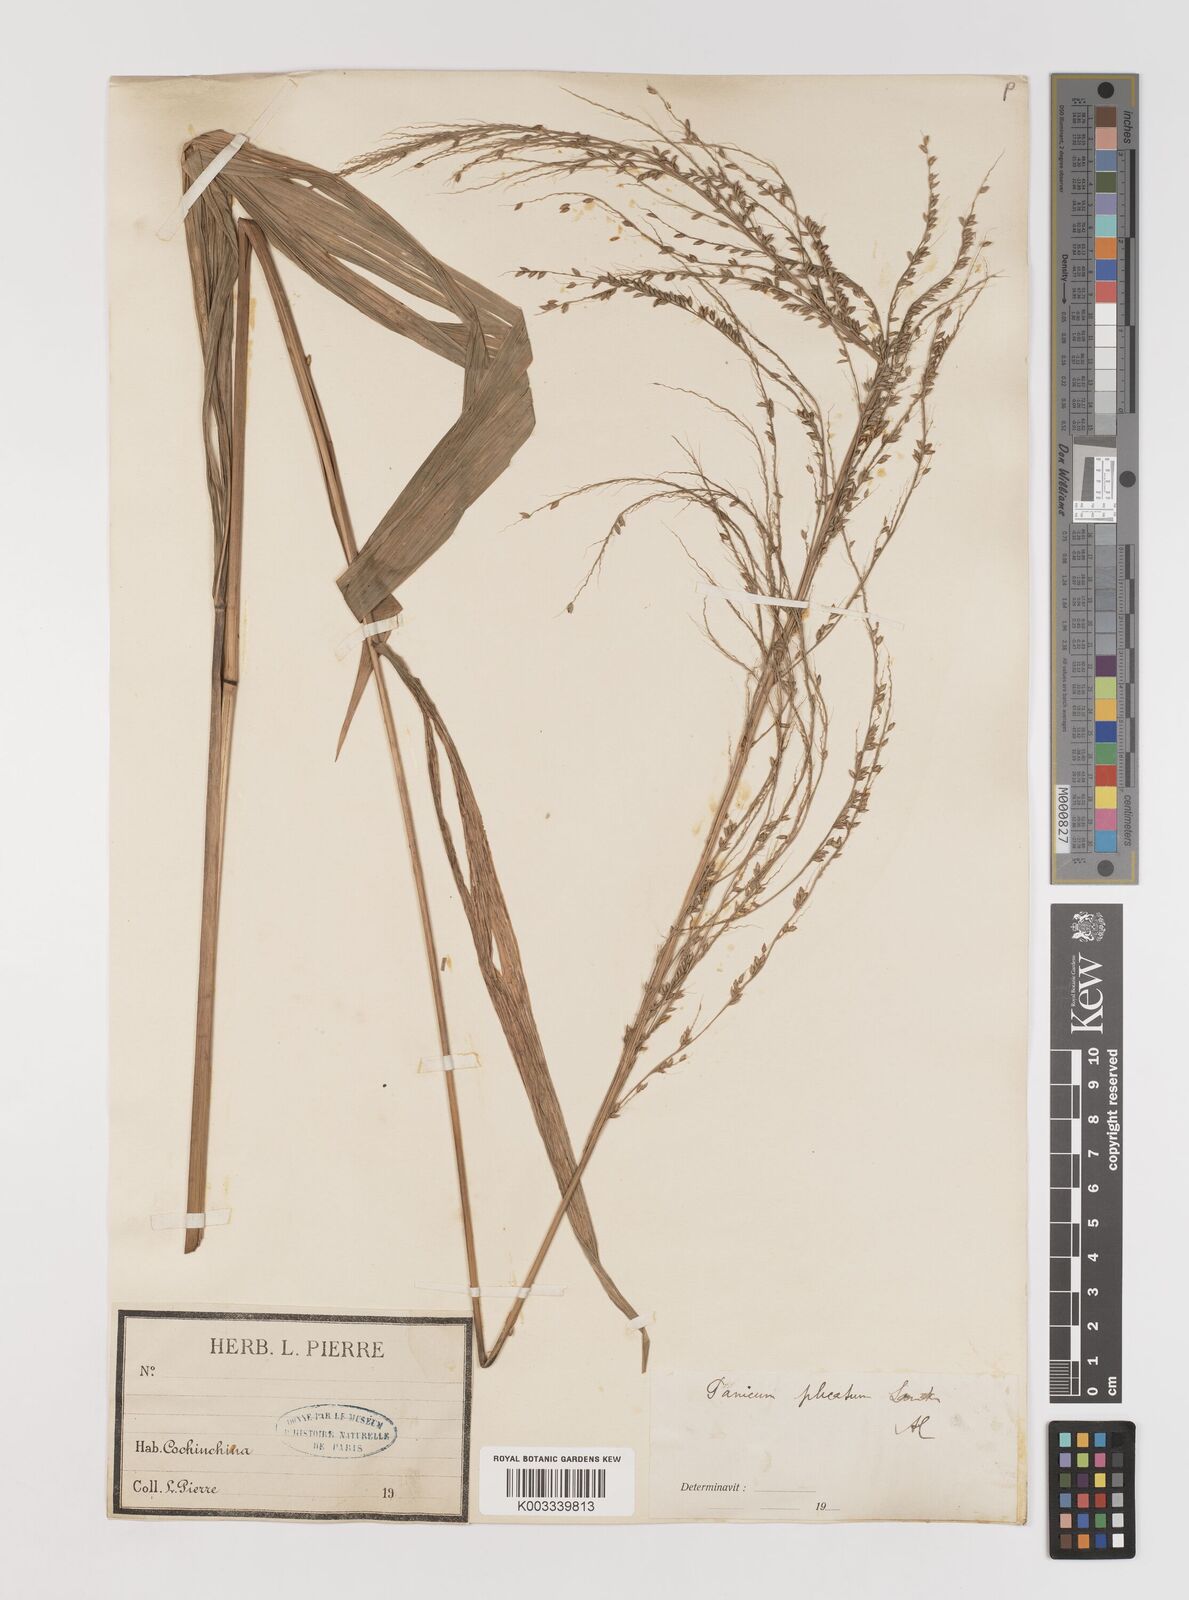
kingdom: Plantae
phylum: Tracheophyta
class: Liliopsida
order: Poales
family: Poaceae
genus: Setaria
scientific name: Setaria palmifolia
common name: Broadleaved bristlegrass
